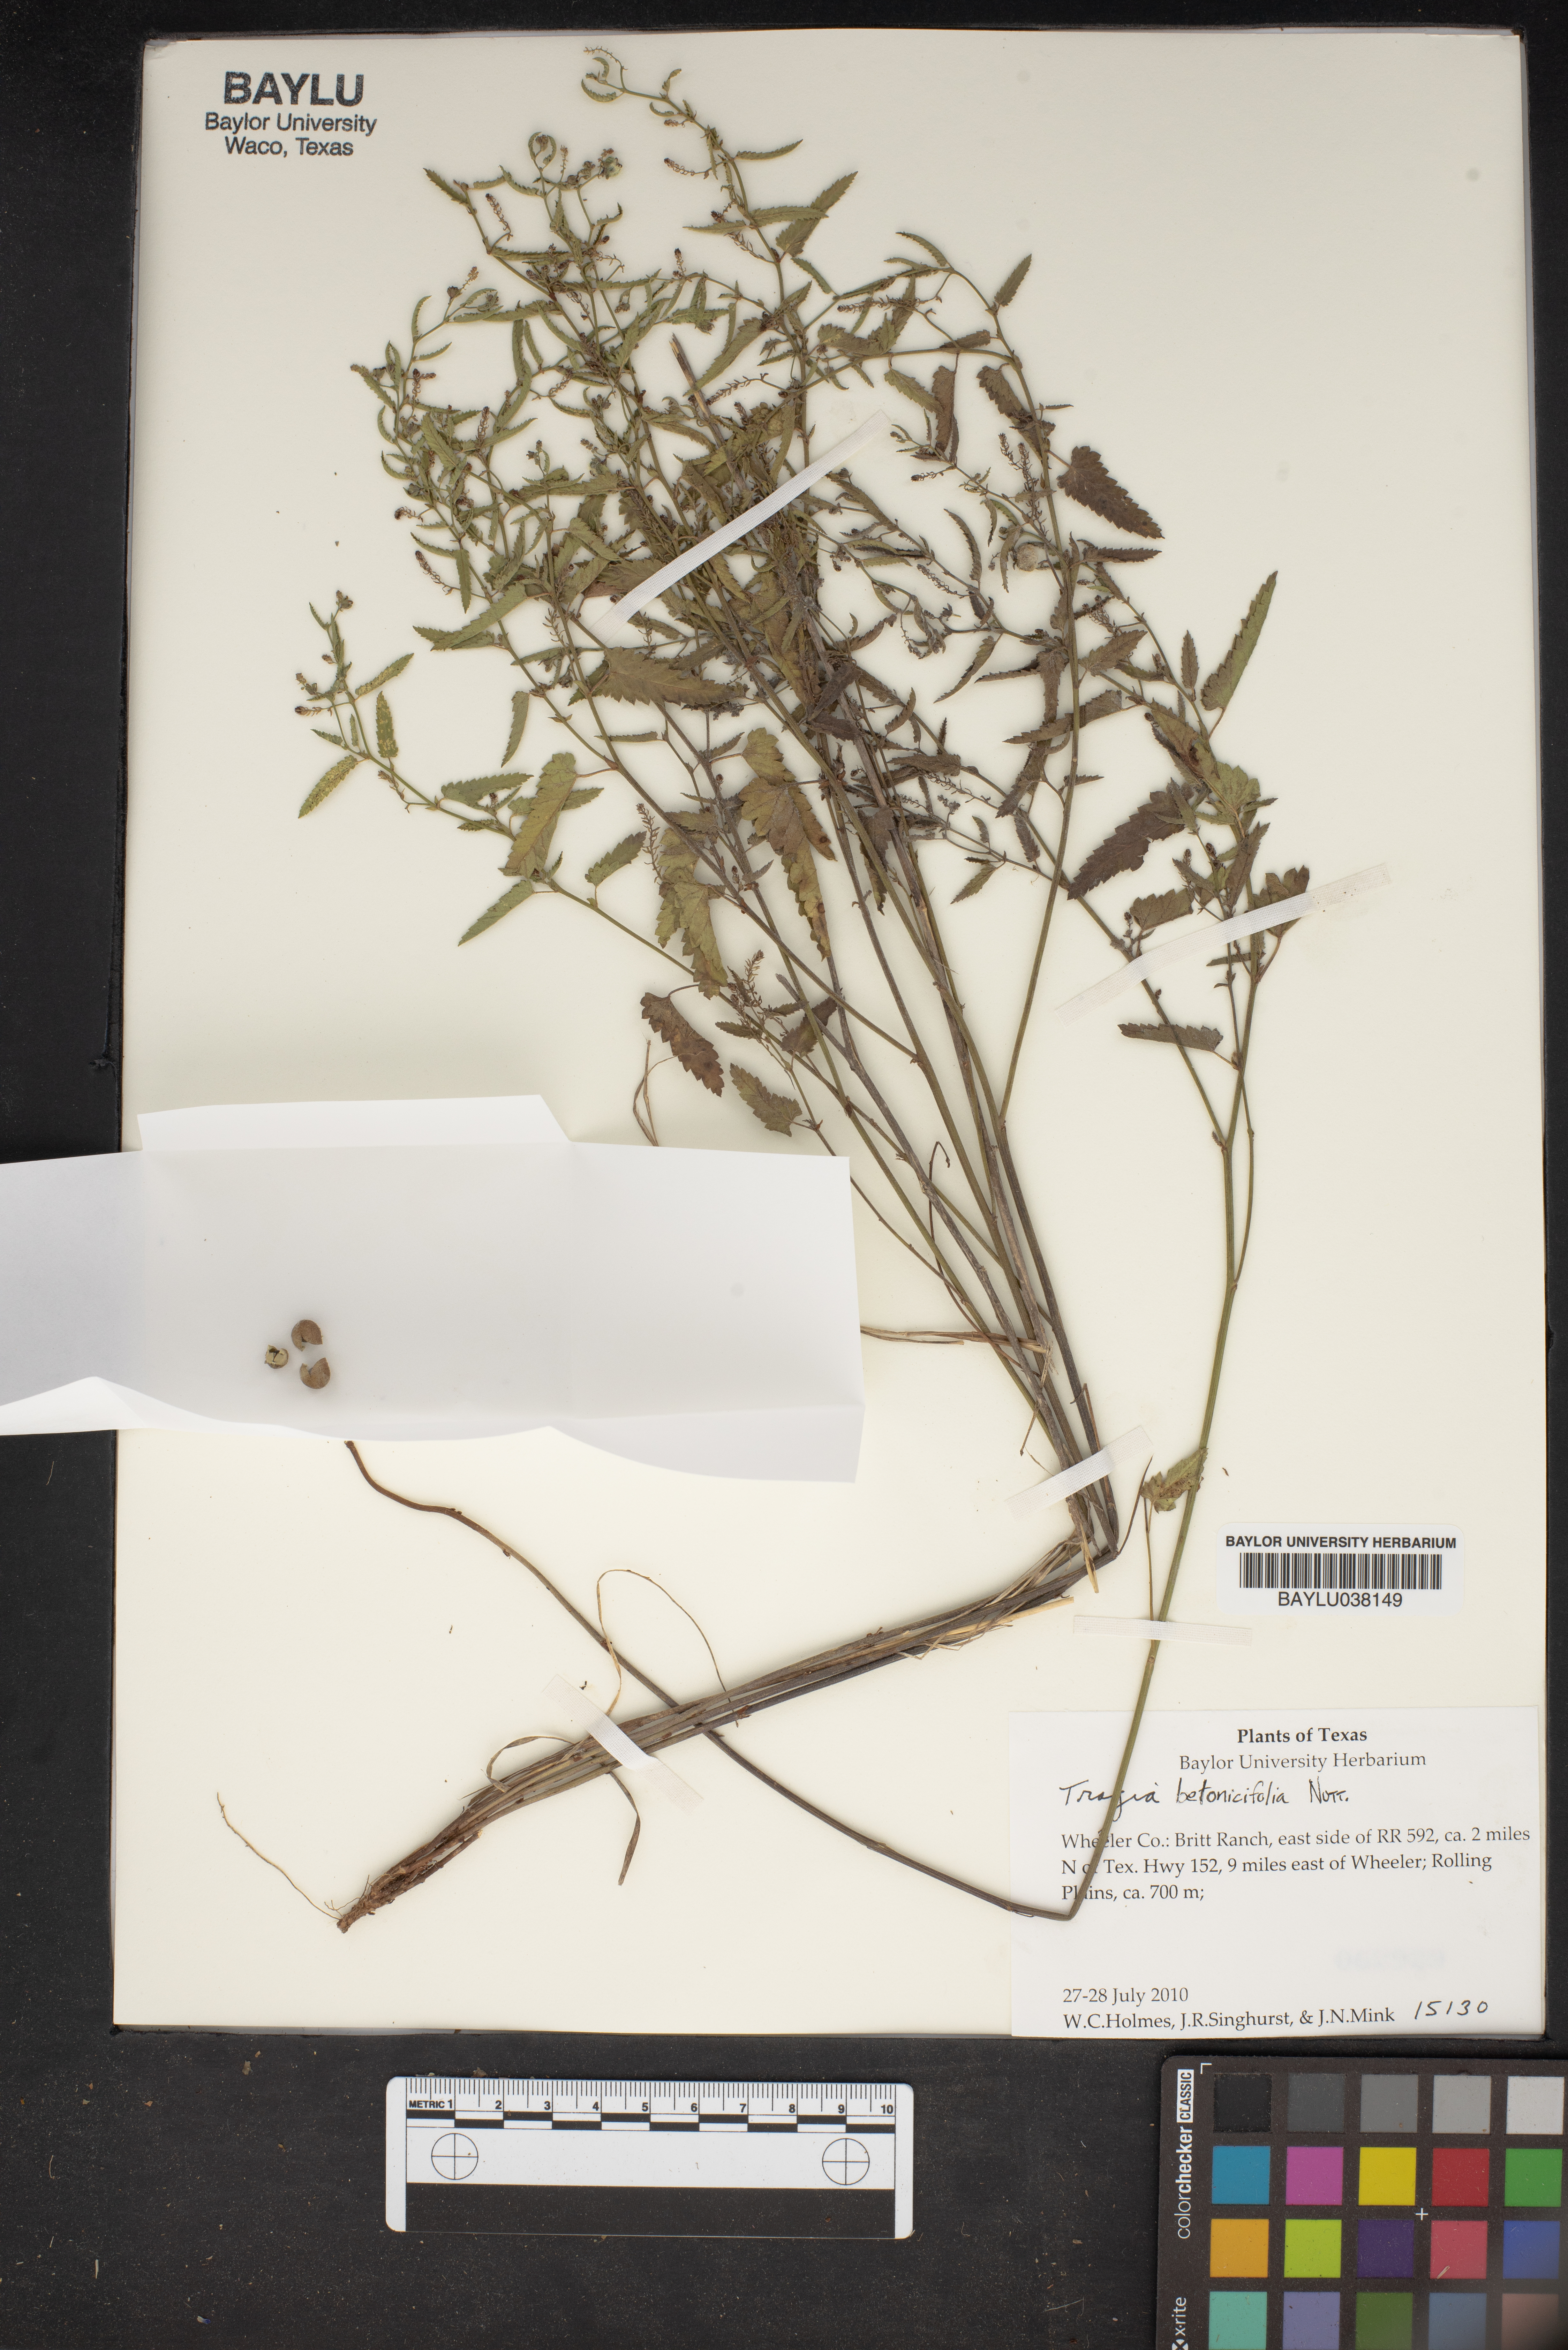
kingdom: Plantae
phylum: Tracheophyta
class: Magnoliopsida
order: Malpighiales
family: Euphorbiaceae
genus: Tragia
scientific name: Tragia betonicifolia
